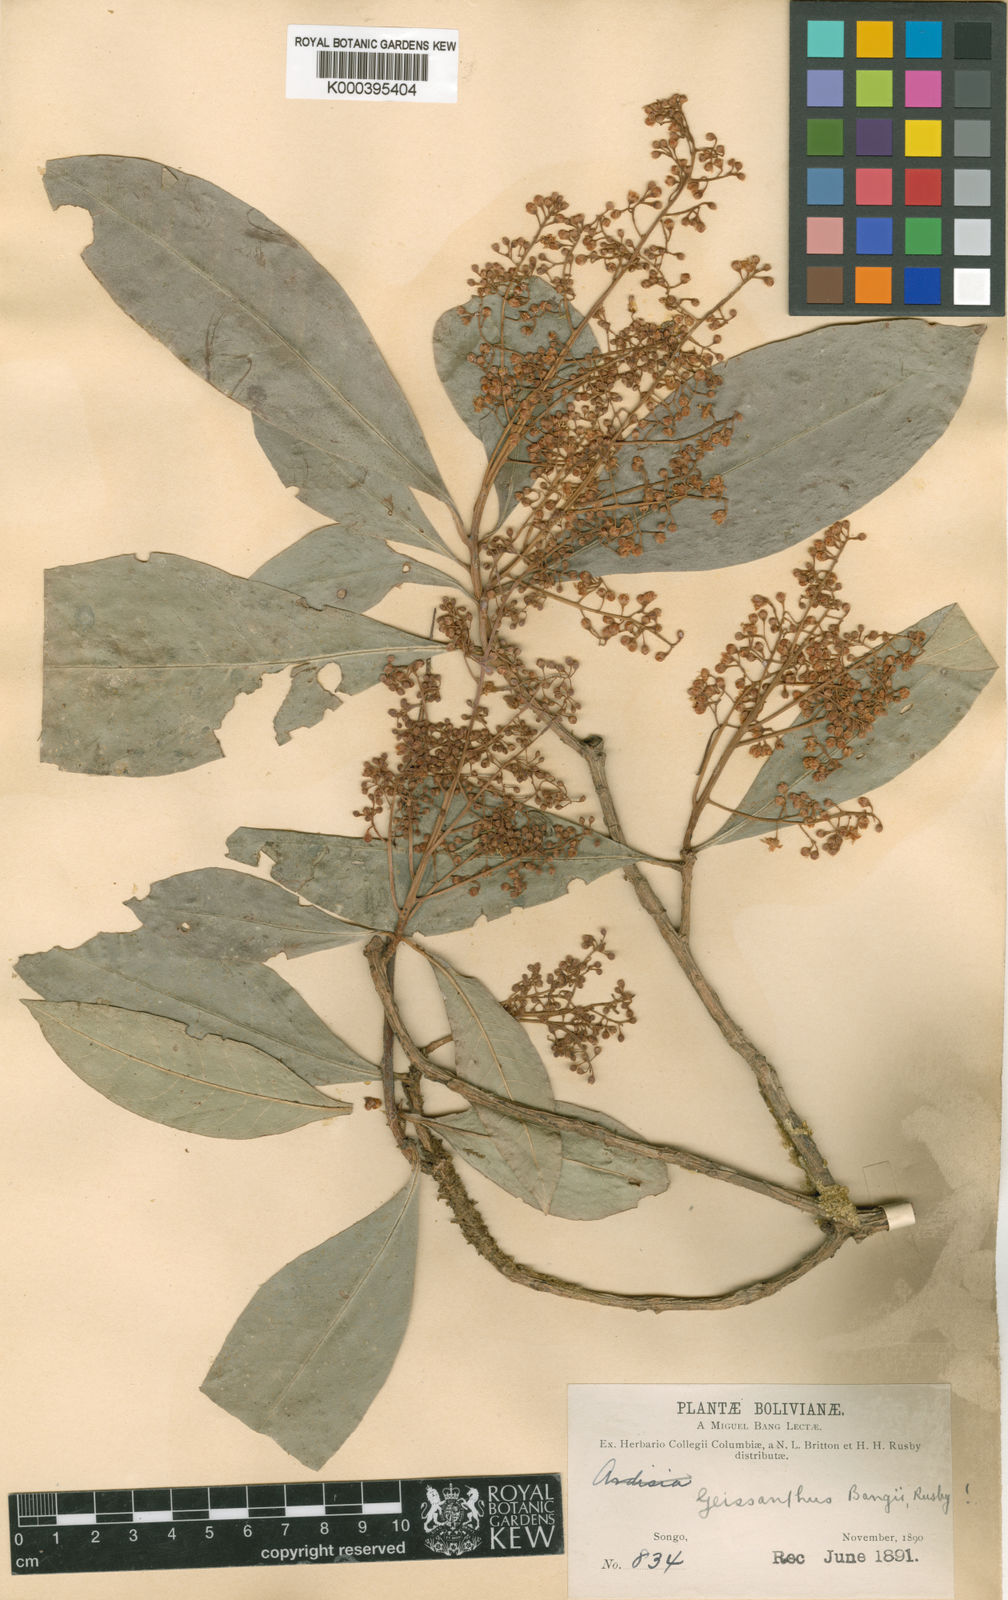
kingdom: Plantae
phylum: Tracheophyta
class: Magnoliopsida
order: Ericales
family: Primulaceae
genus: Geissanthus
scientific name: Geissanthus bangii
